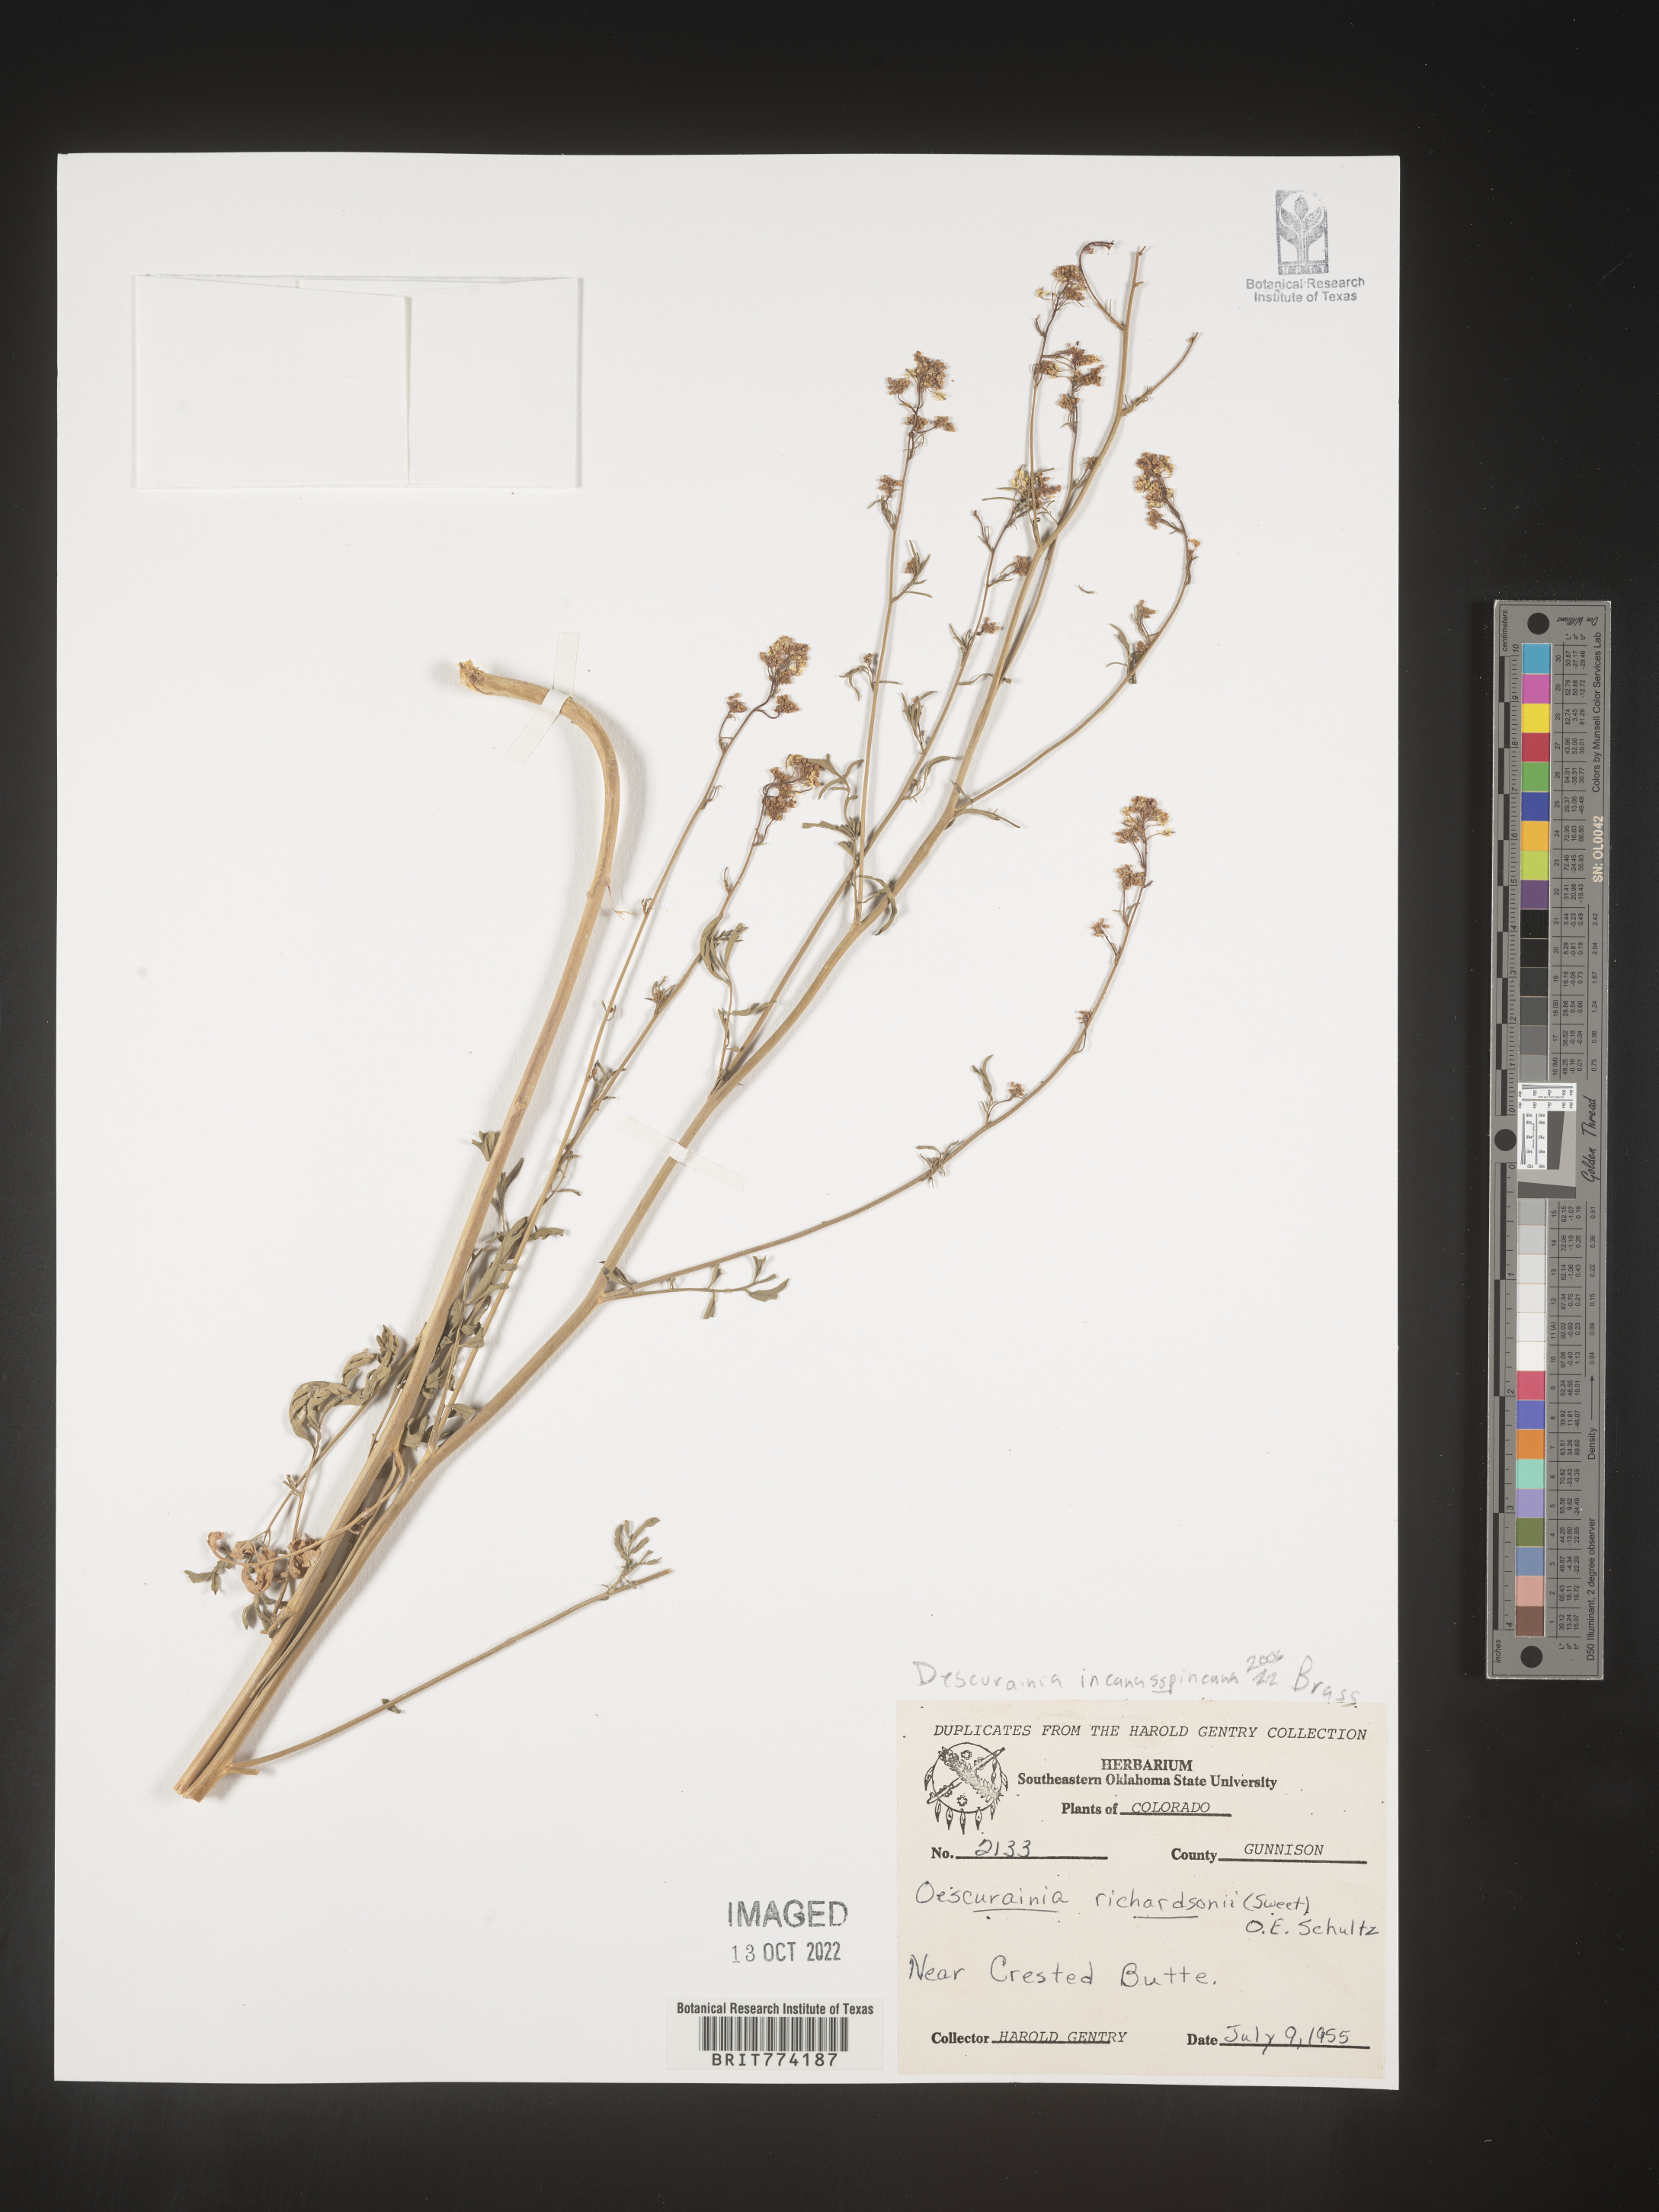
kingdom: Plantae
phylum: Tracheophyta
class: Magnoliopsida
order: Brassicales
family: Brassicaceae
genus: Descurainia
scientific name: Descurainia
